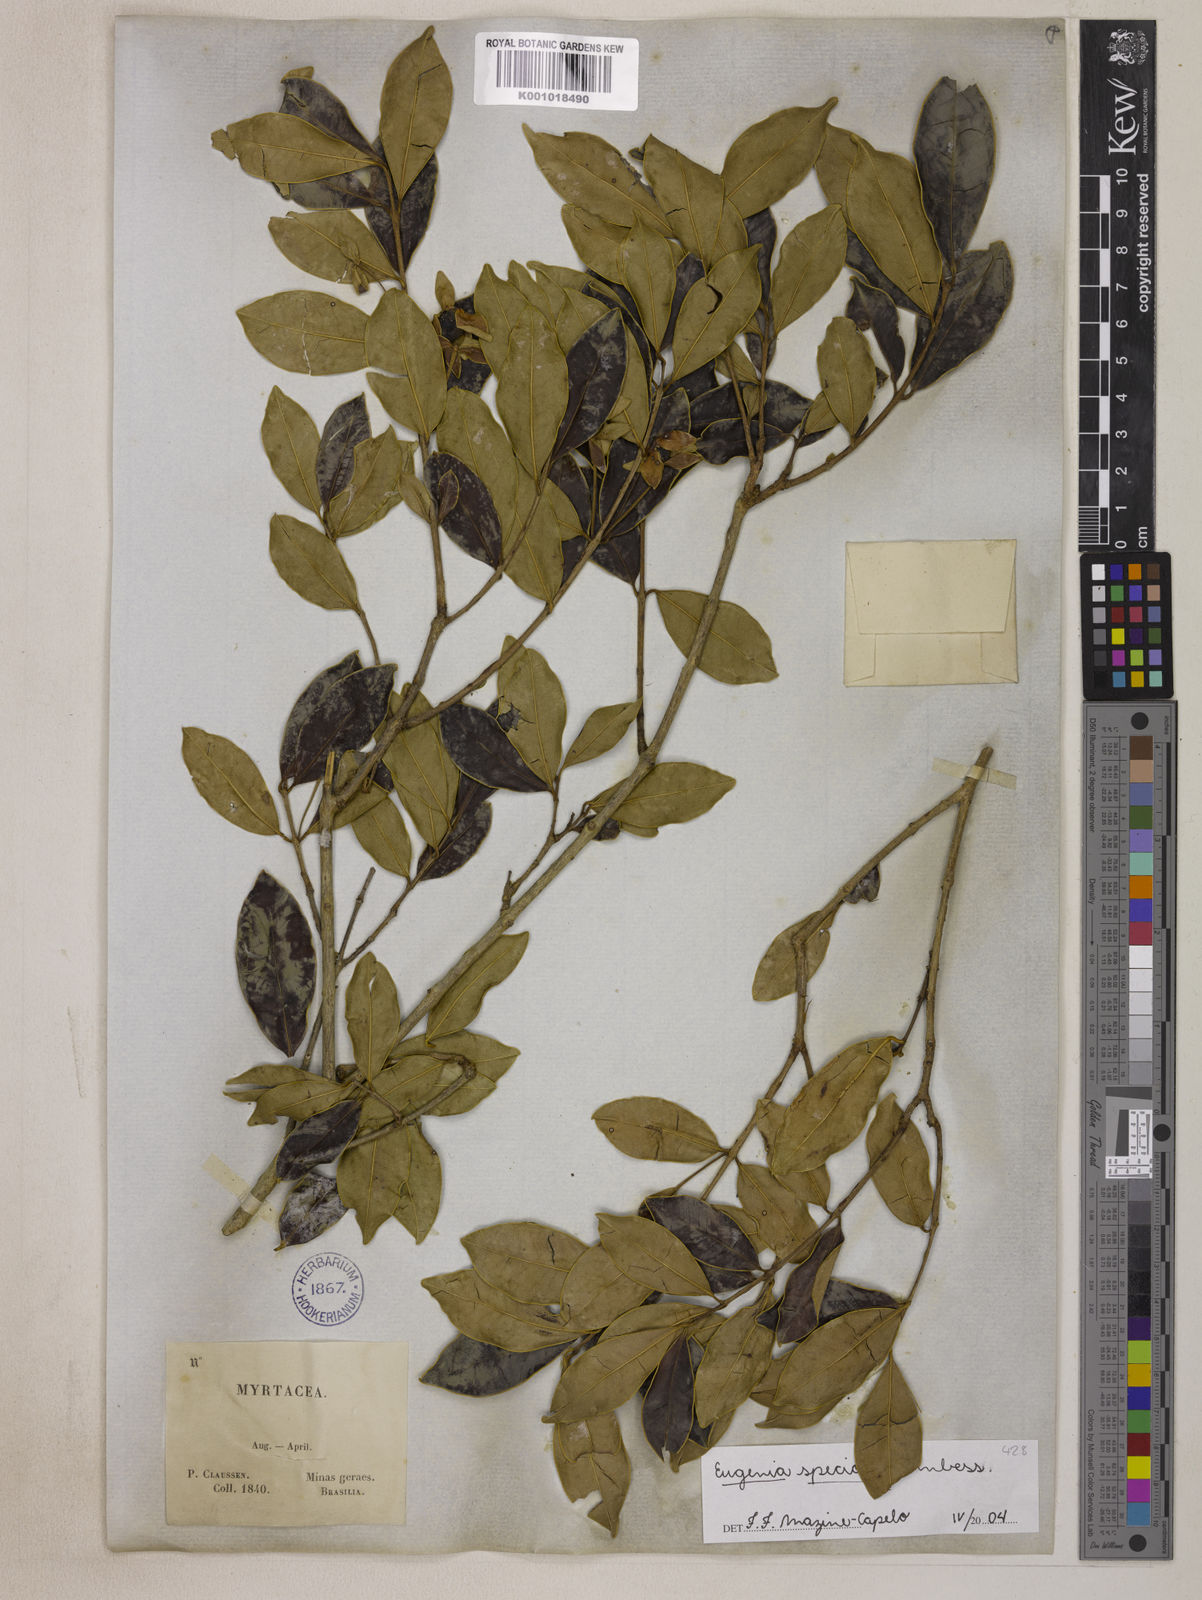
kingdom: Plantae
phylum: Tracheophyta
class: Magnoliopsida
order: Myrtales
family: Myrtaceae
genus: Eugenia
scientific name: Eugenia speciosa
